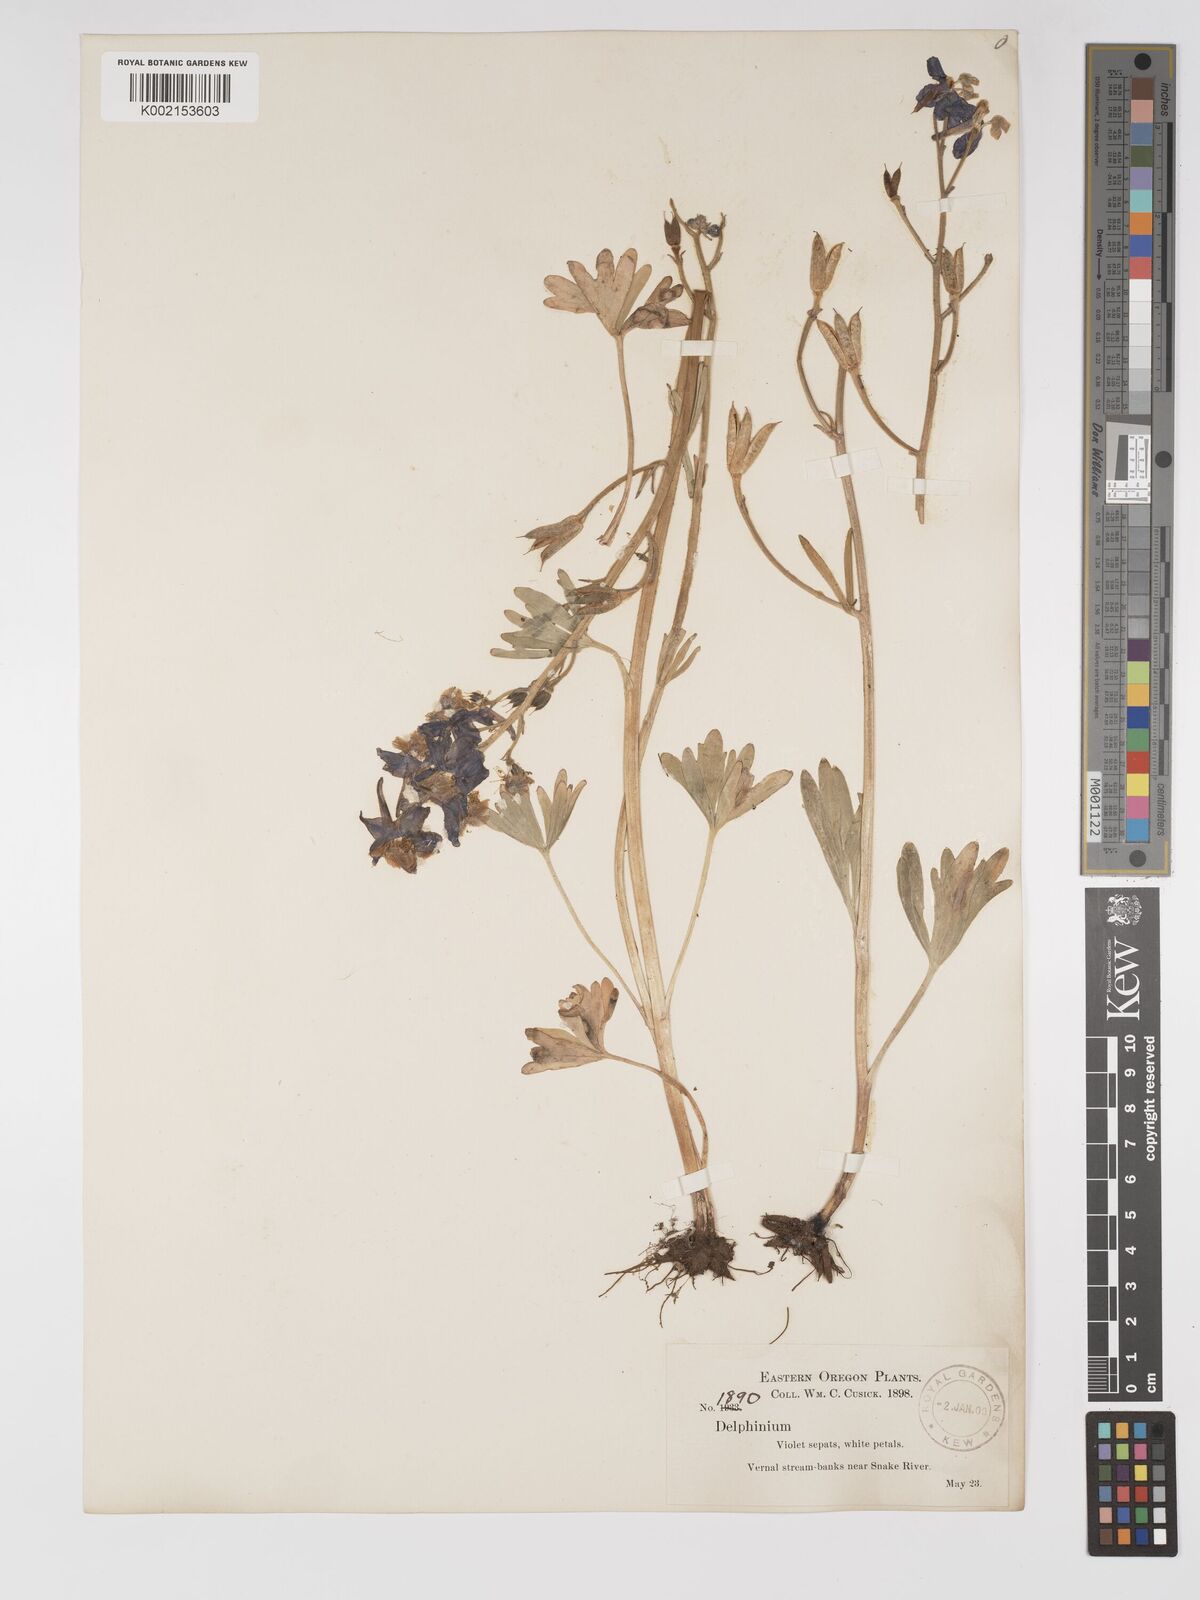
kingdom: Plantae
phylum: Tracheophyta
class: Magnoliopsida
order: Ranunculales
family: Ranunculaceae
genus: Delphinium
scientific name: Delphinium bicolor
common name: Low larkspur
